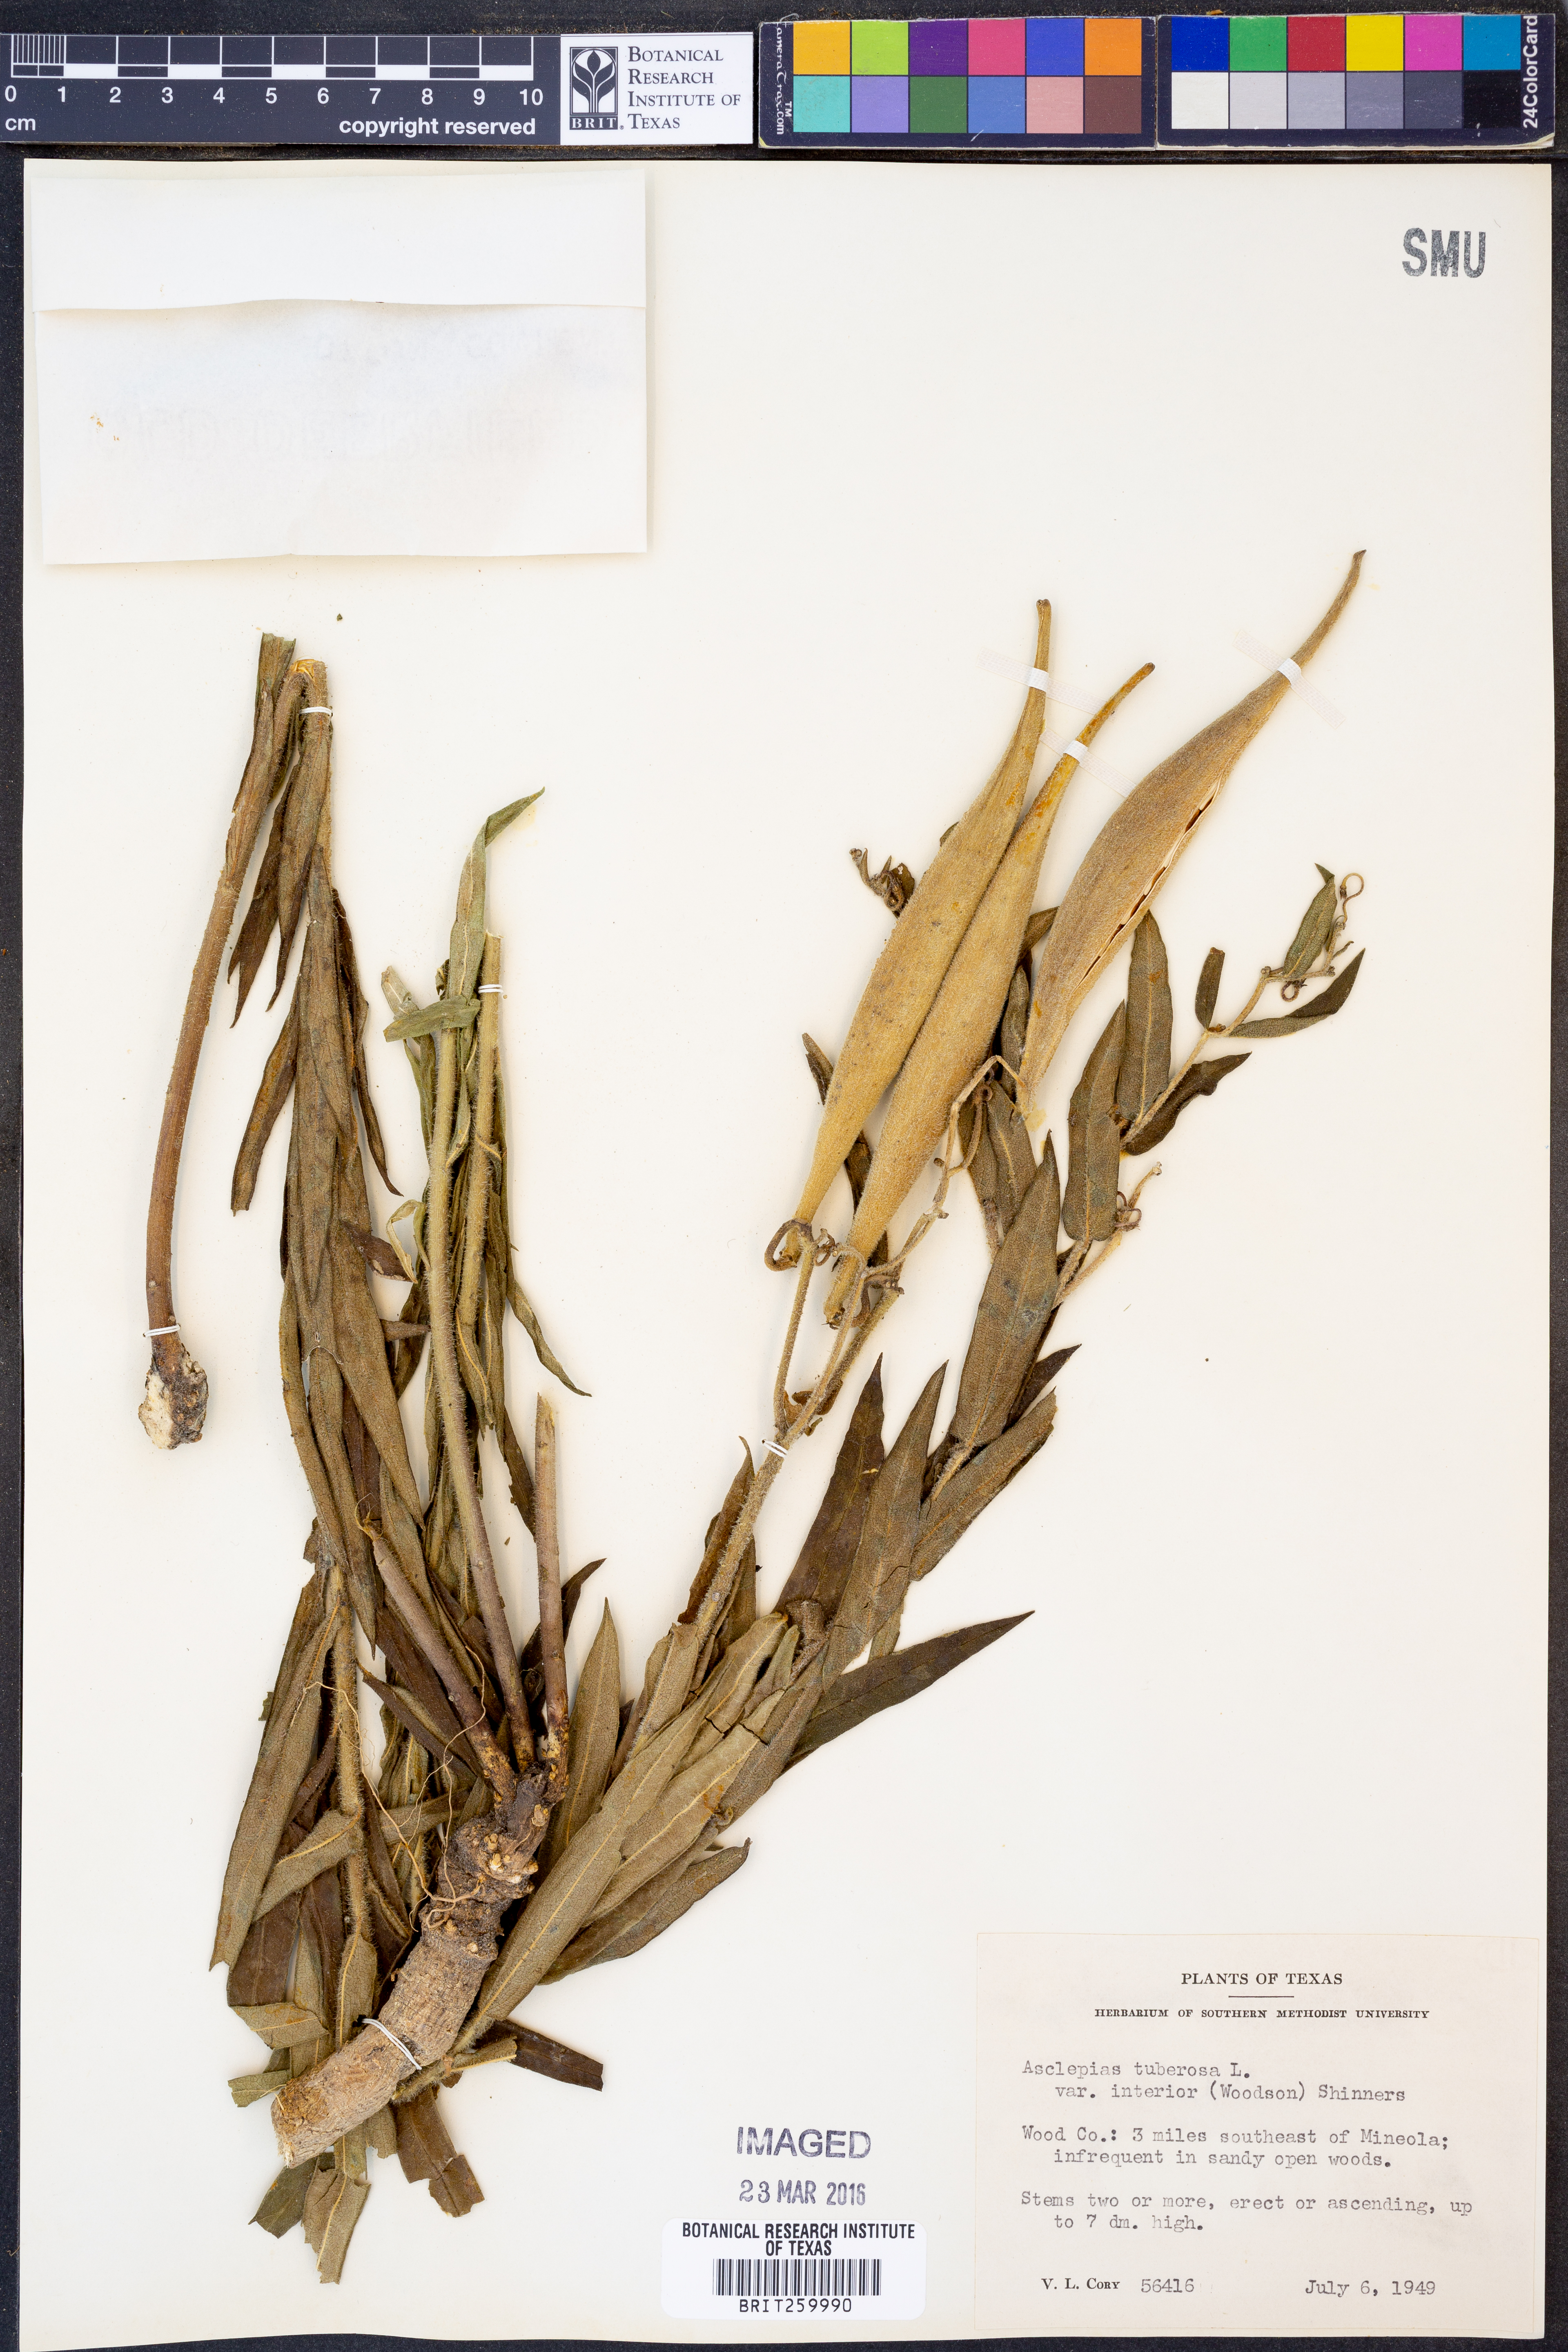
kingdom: Plantae
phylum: Tracheophyta
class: Magnoliopsida
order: Gentianales
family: Apocynaceae
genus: Asclepias
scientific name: Asclepias tuberosa
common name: Butterfly milkweed
